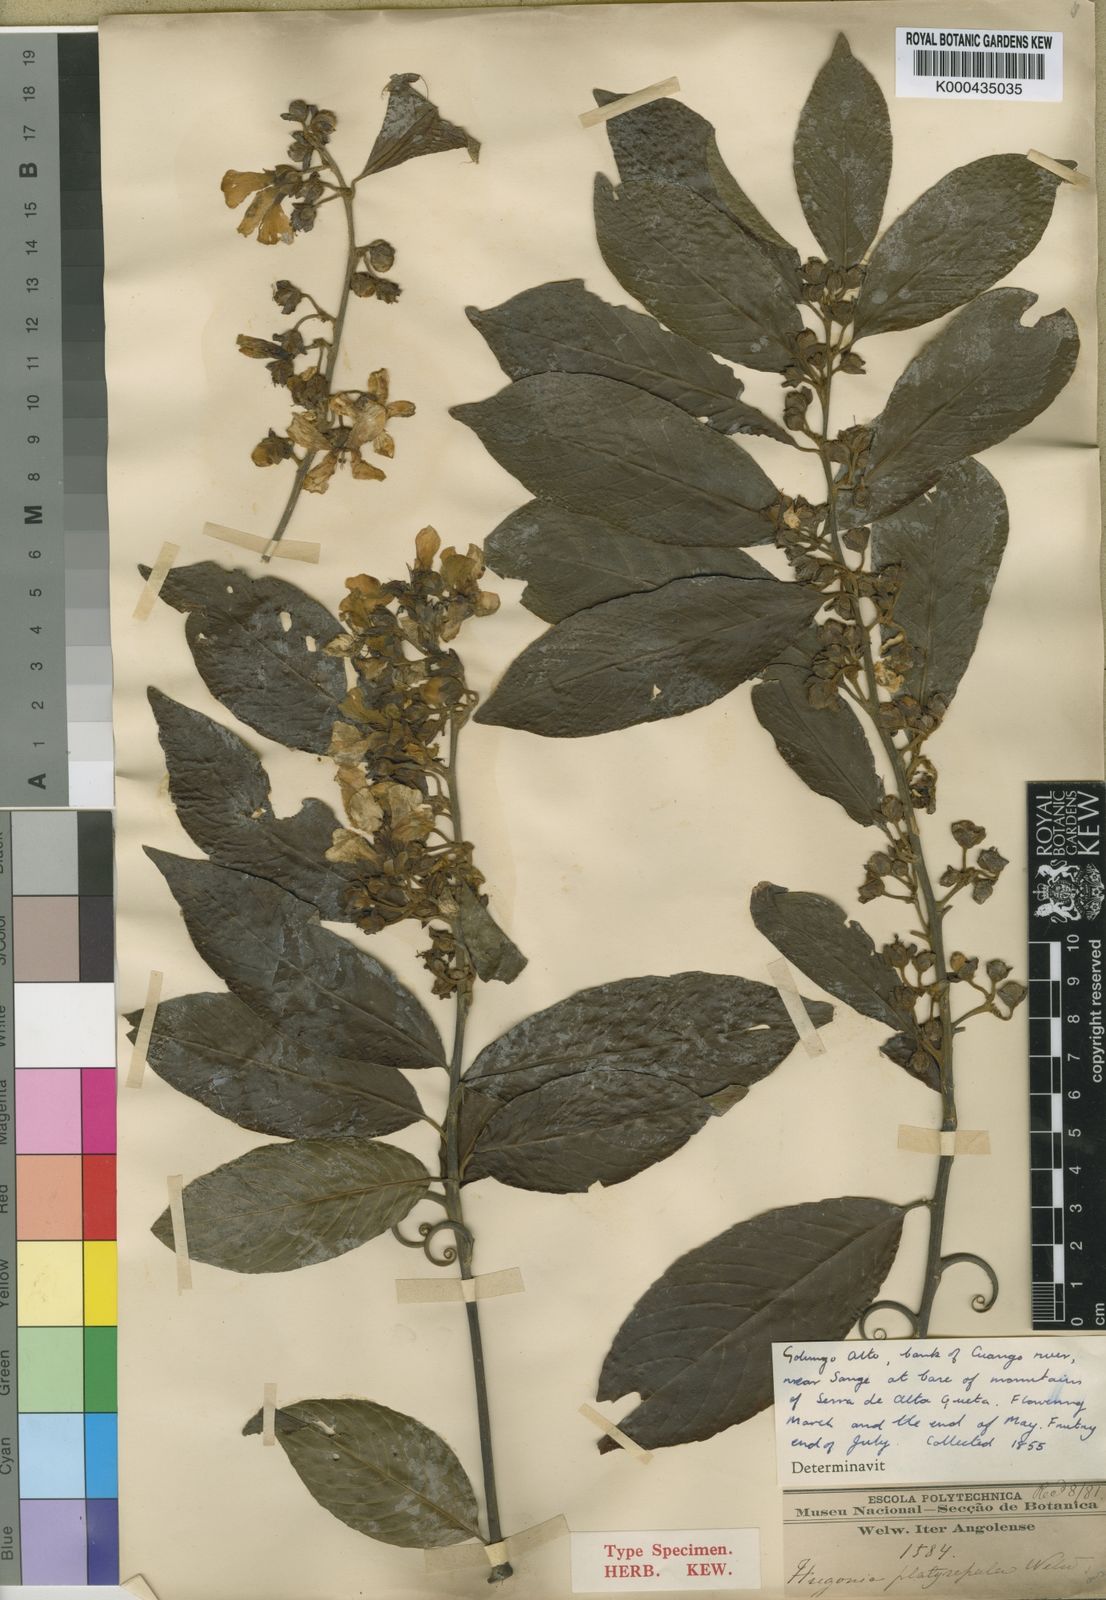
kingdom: Plantae
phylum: Tracheophyta
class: Magnoliopsida
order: Malpighiales
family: Linaceae
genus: Hugonia
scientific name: Hugonia platysepala
